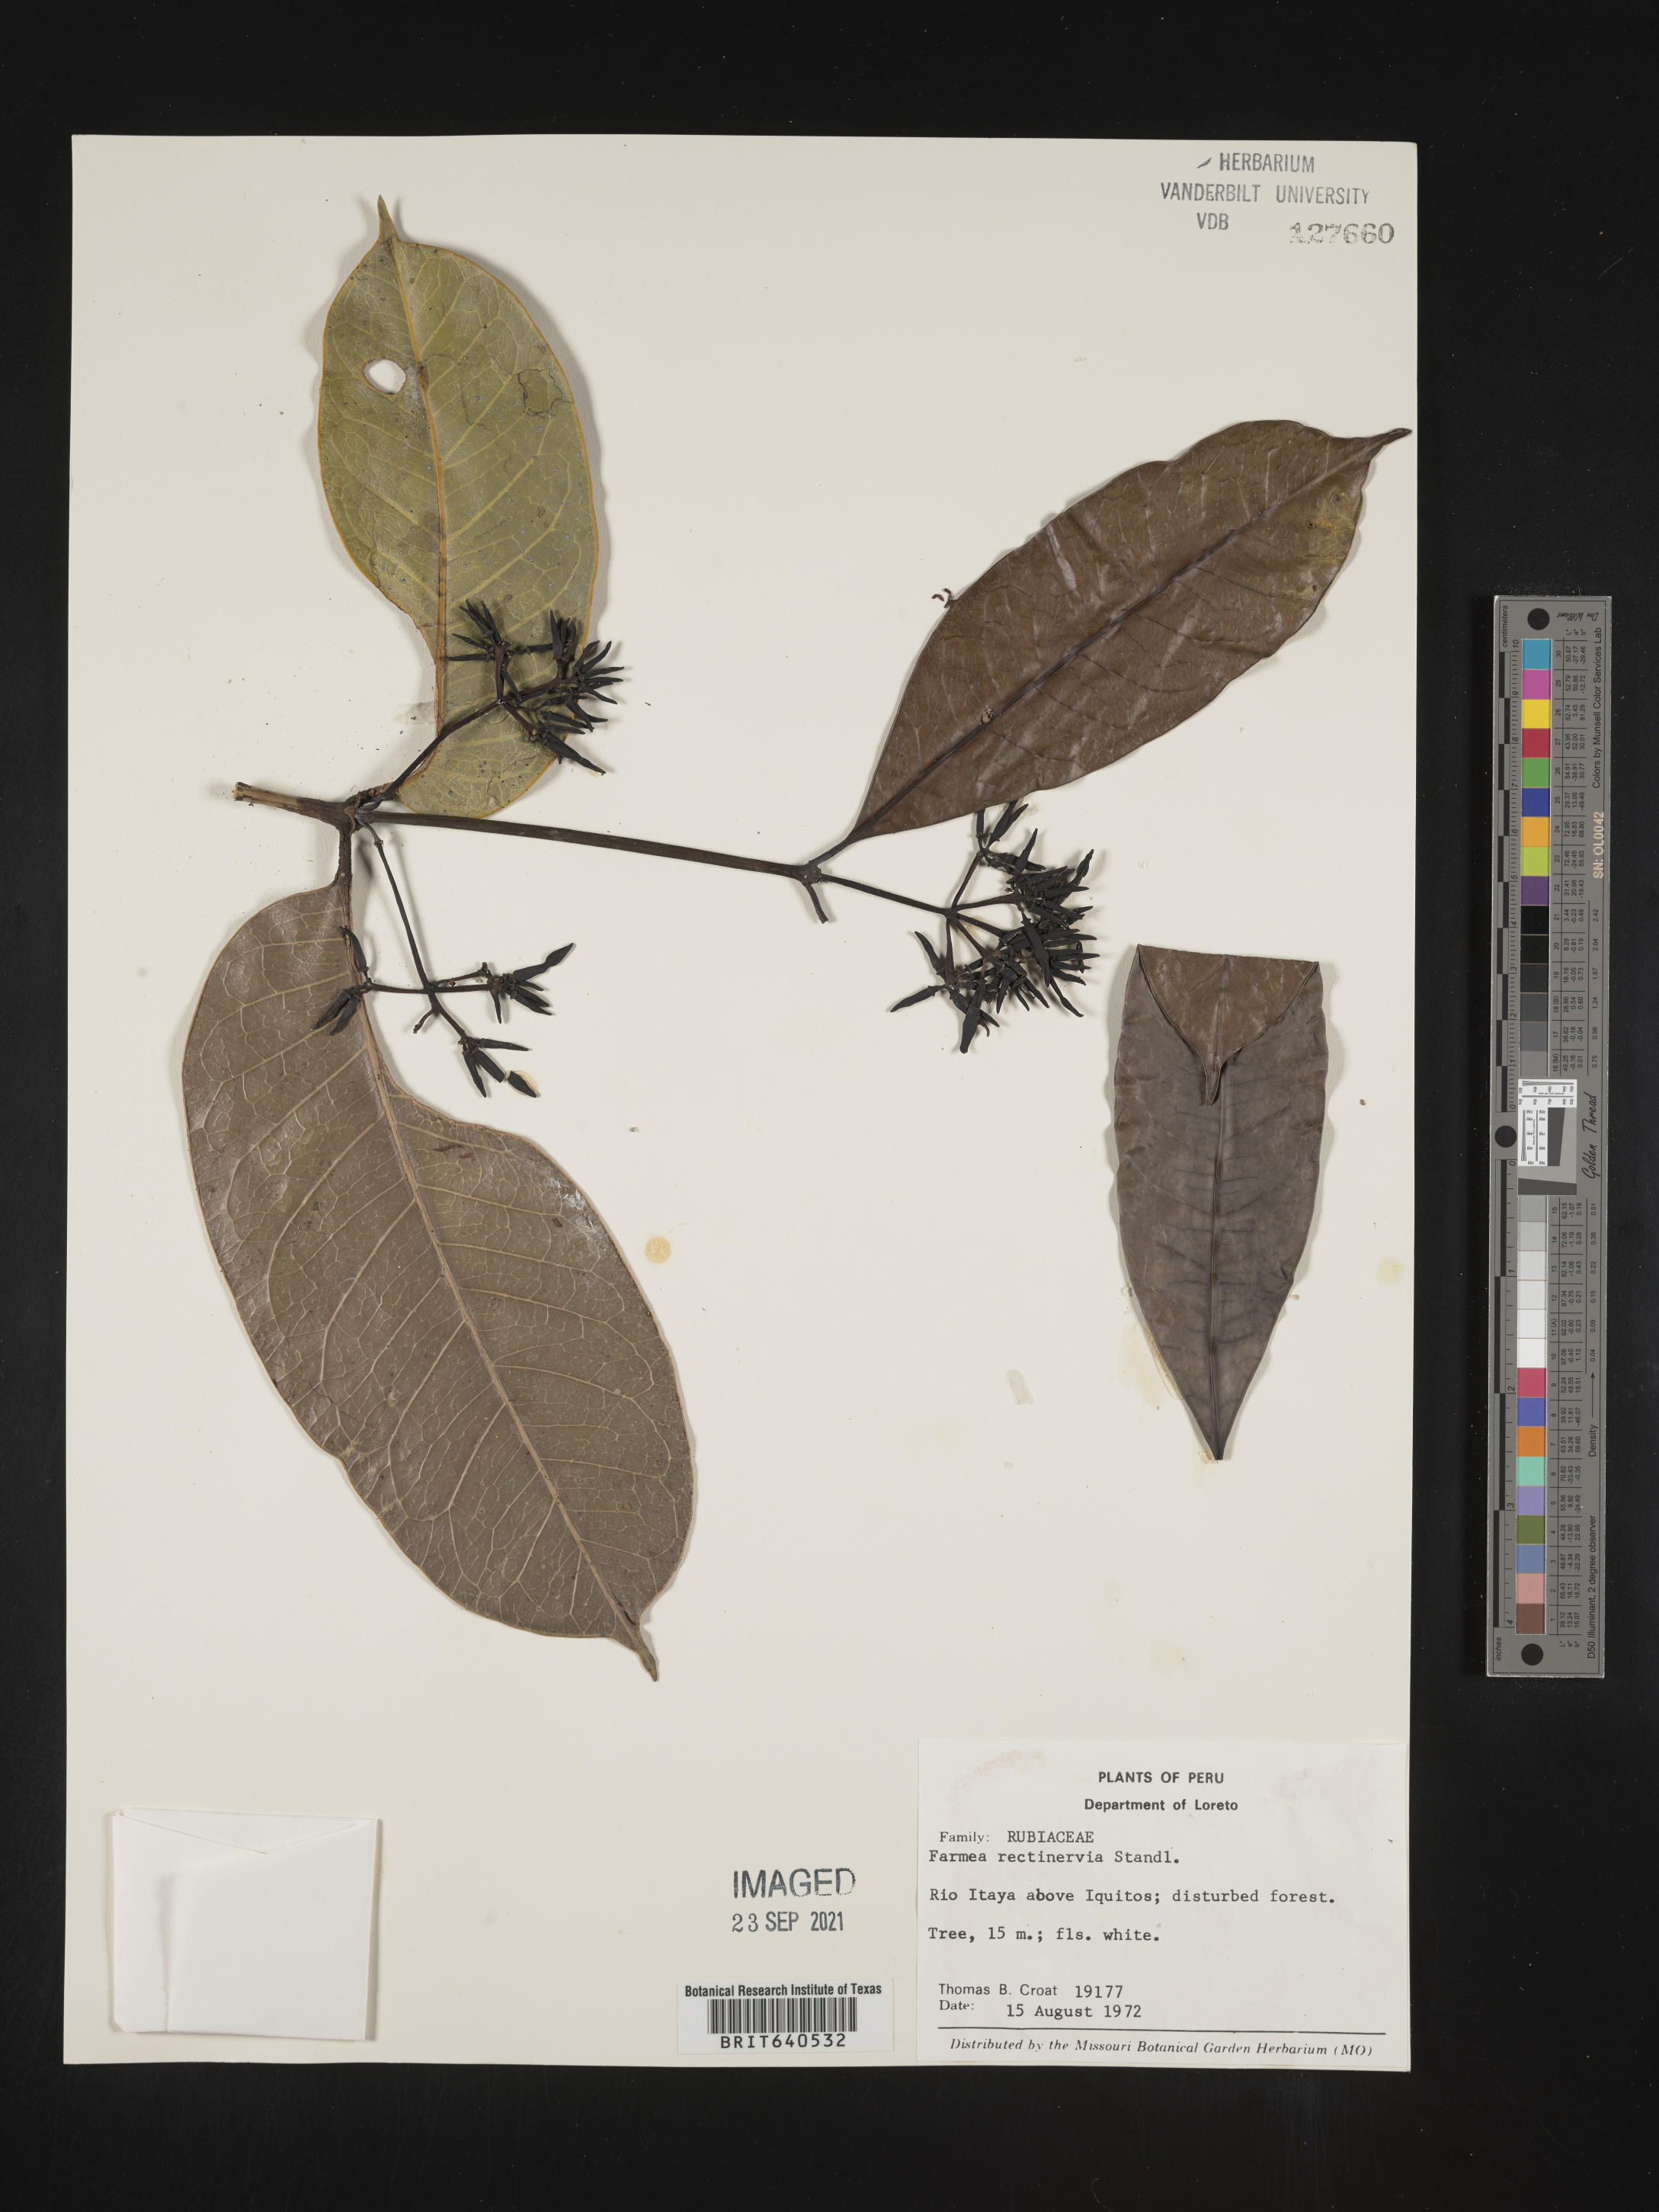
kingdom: Plantae
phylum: Tracheophyta
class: Magnoliopsida
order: Gentianales
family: Rubiaceae
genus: Faramea
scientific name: Faramea
